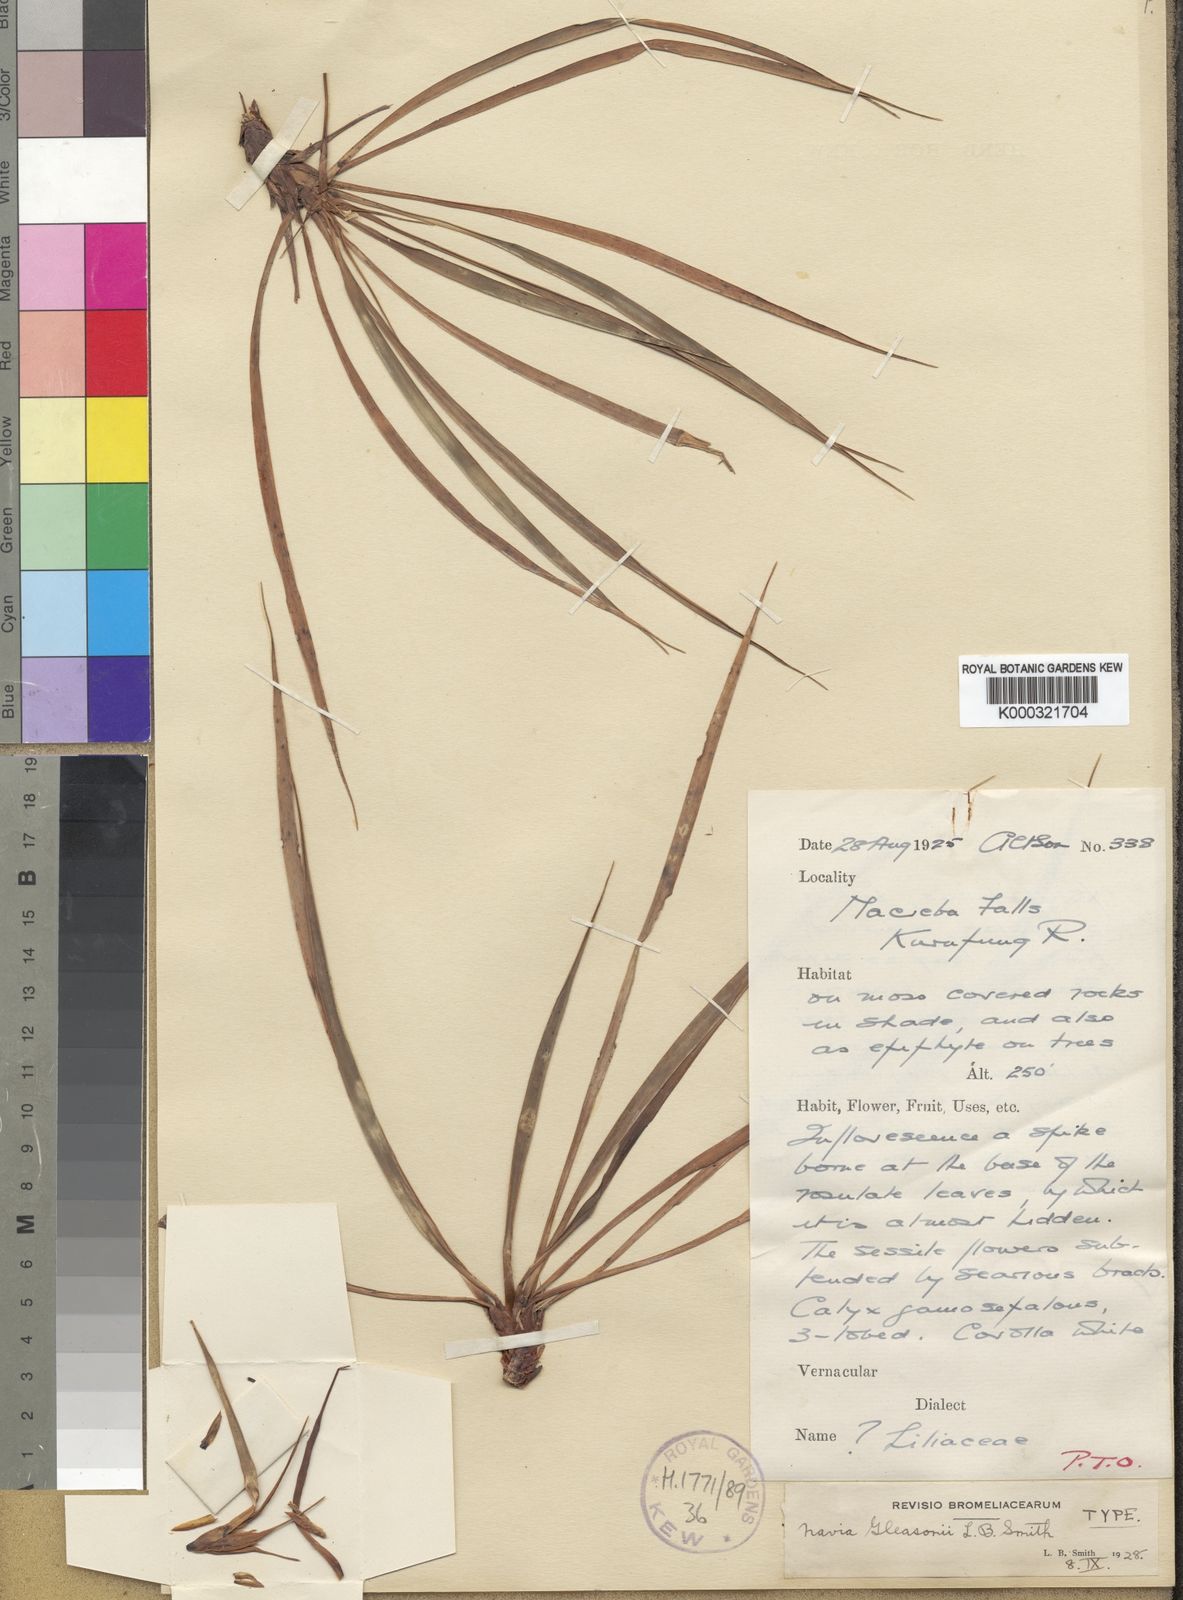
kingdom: Plantae
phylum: Tracheophyta
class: Liliopsida
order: Poales
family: Bromeliaceae
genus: Navia
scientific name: Navia gleasonii
